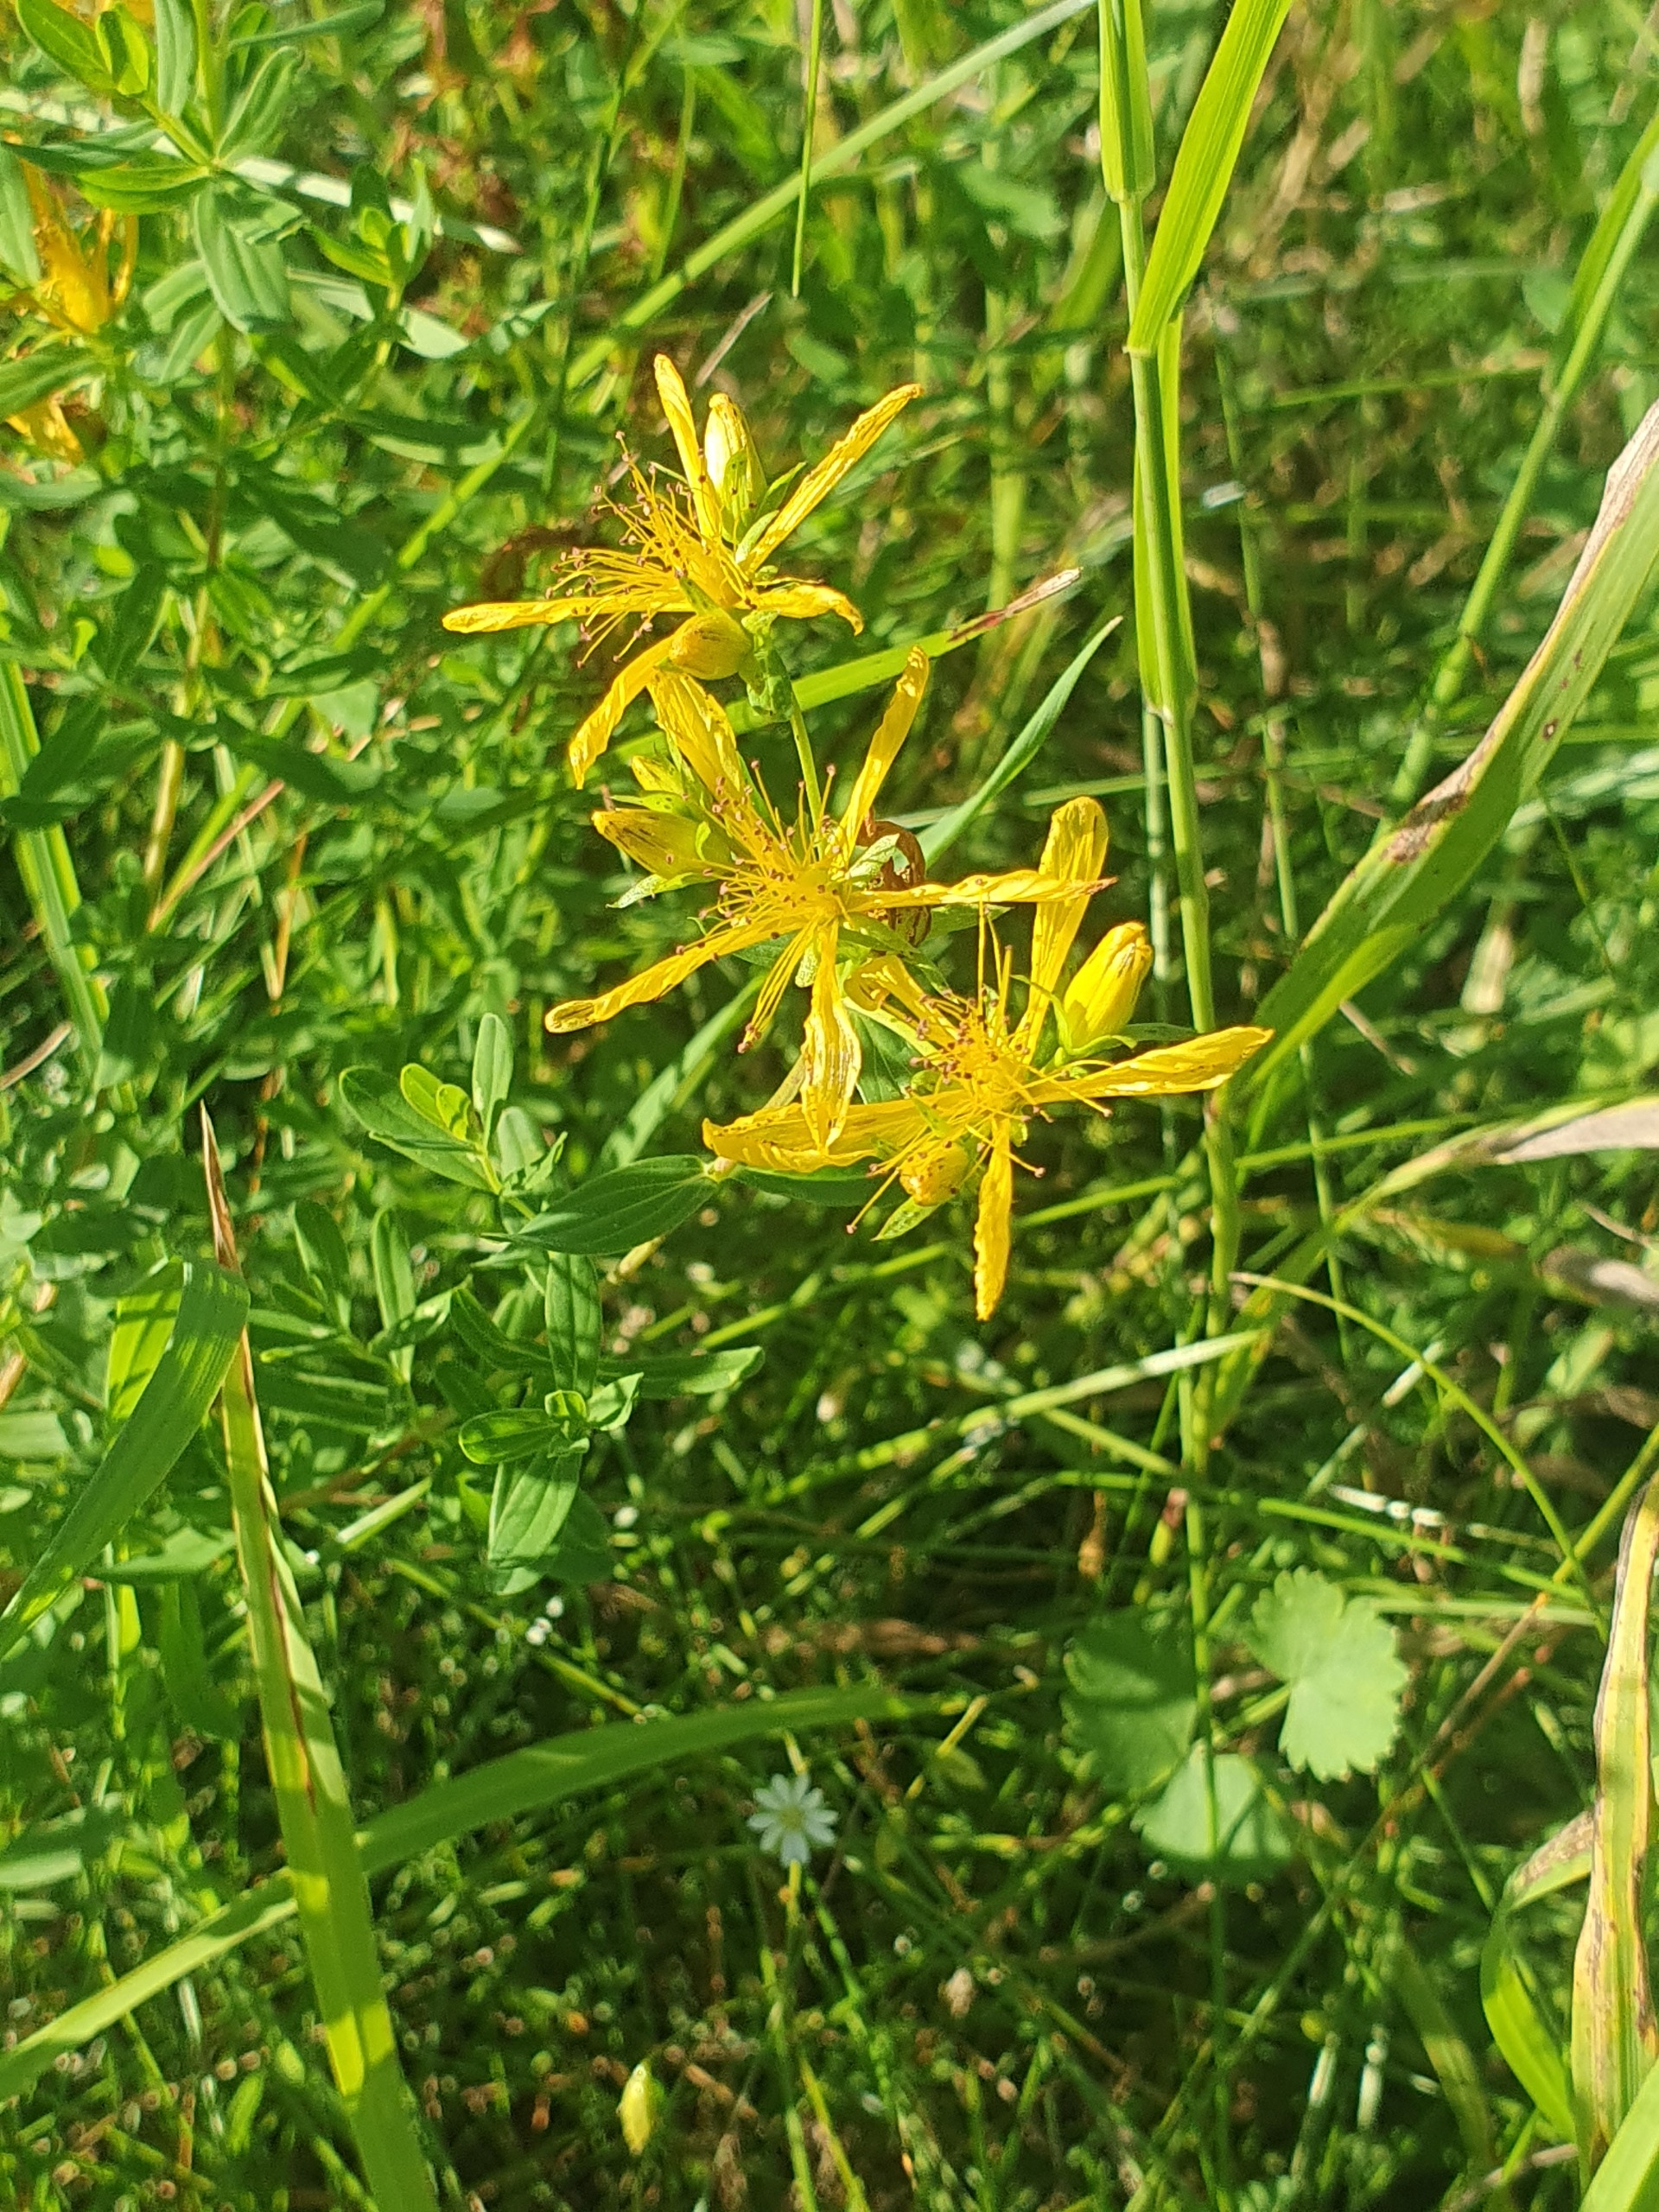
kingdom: Plantae
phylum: Tracheophyta
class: Magnoliopsida
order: Malpighiales
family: Hypericaceae
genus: Hypericum
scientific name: Hypericum perforatum
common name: Prikbladet perikon
